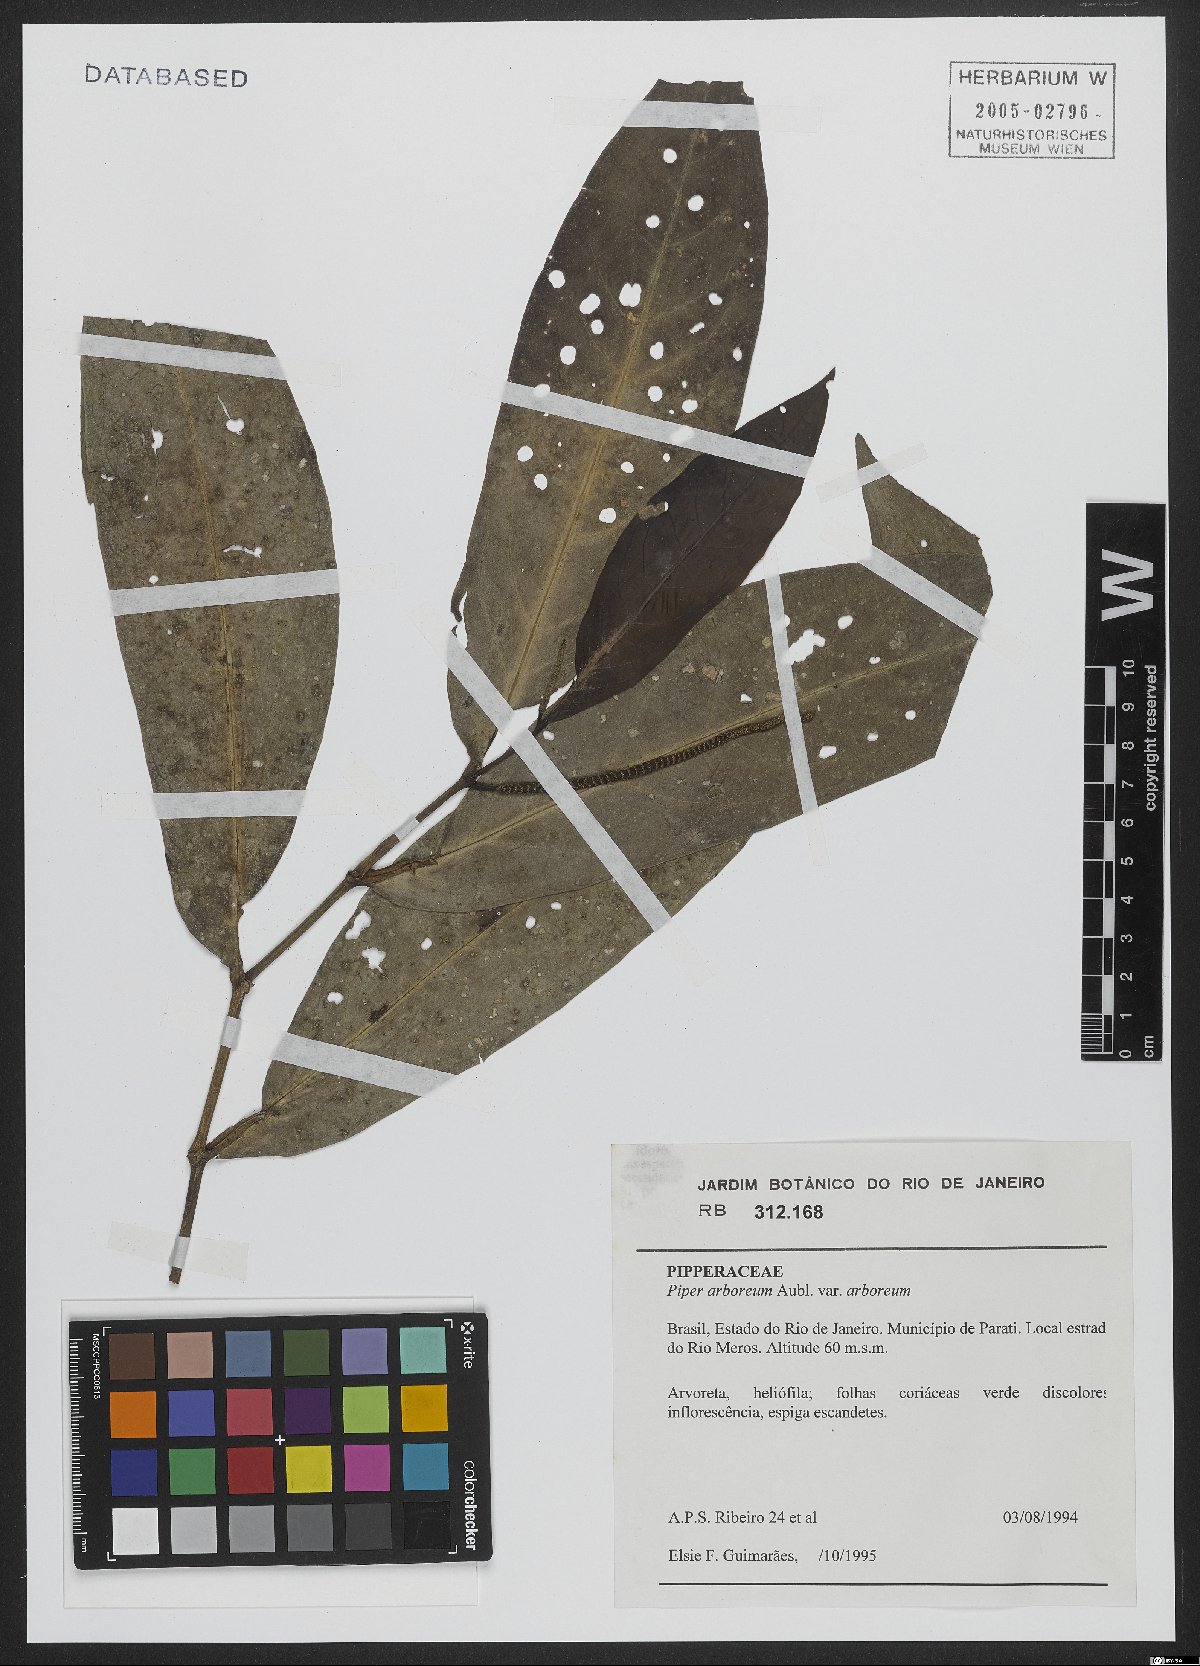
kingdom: Plantae
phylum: Tracheophyta
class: Magnoliopsida
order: Piperales
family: Piperaceae
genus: Piper
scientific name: Piper arboreum
